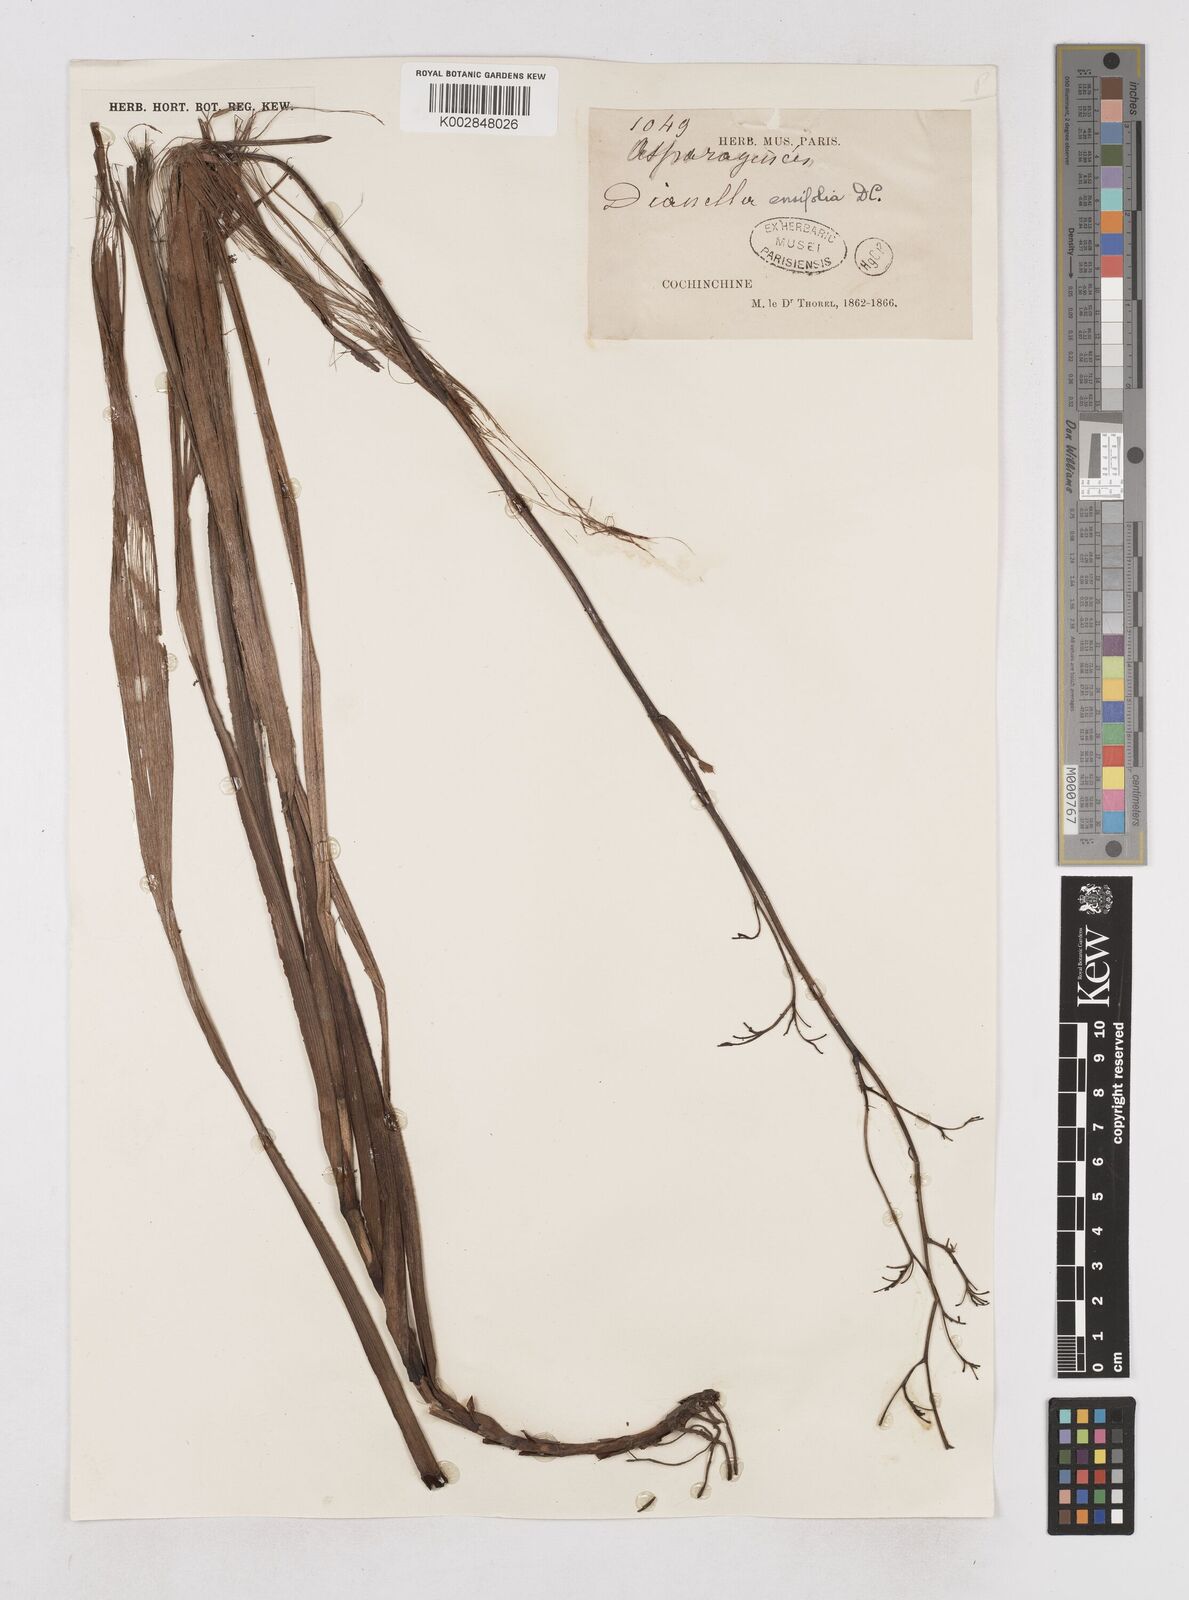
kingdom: Plantae
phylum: Tracheophyta
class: Liliopsida
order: Asparagales
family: Asphodelaceae
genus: Dianella
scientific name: Dianella ensifolia
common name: New zealand lilyplant
